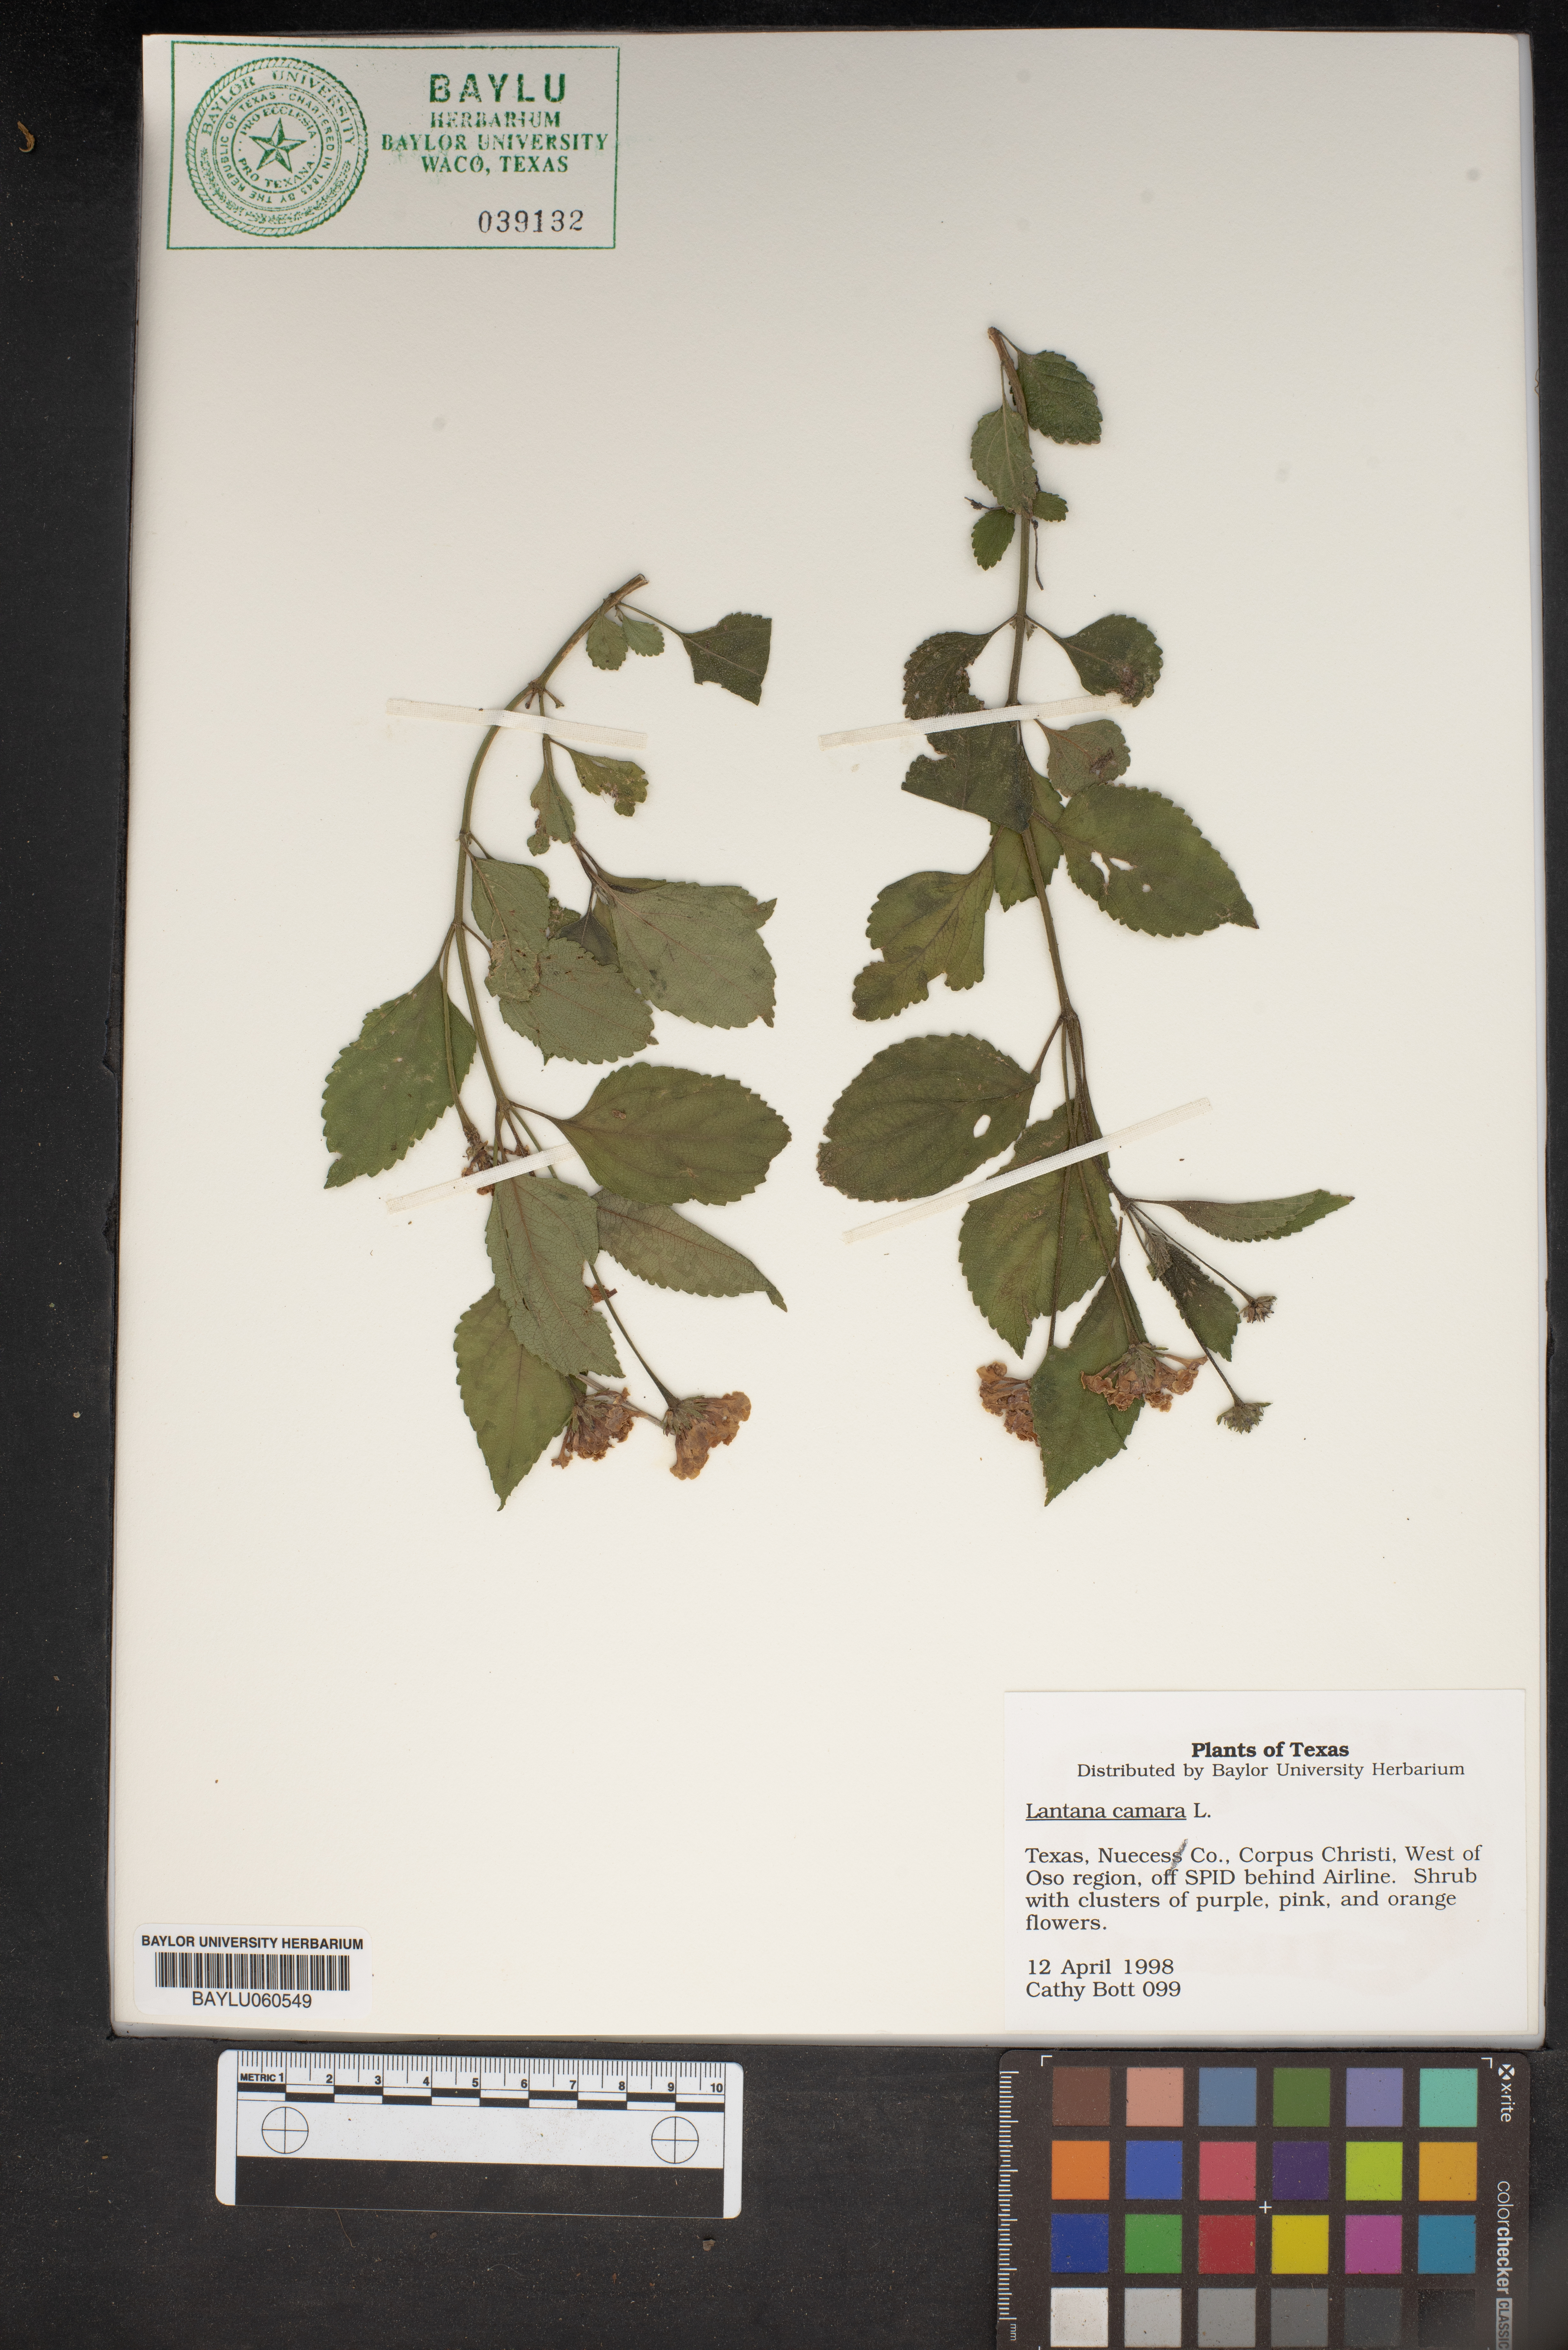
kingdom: Plantae
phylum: Tracheophyta
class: Magnoliopsida
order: Lamiales
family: Verbenaceae
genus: Lantana
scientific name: Lantana camara
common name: Lantana
